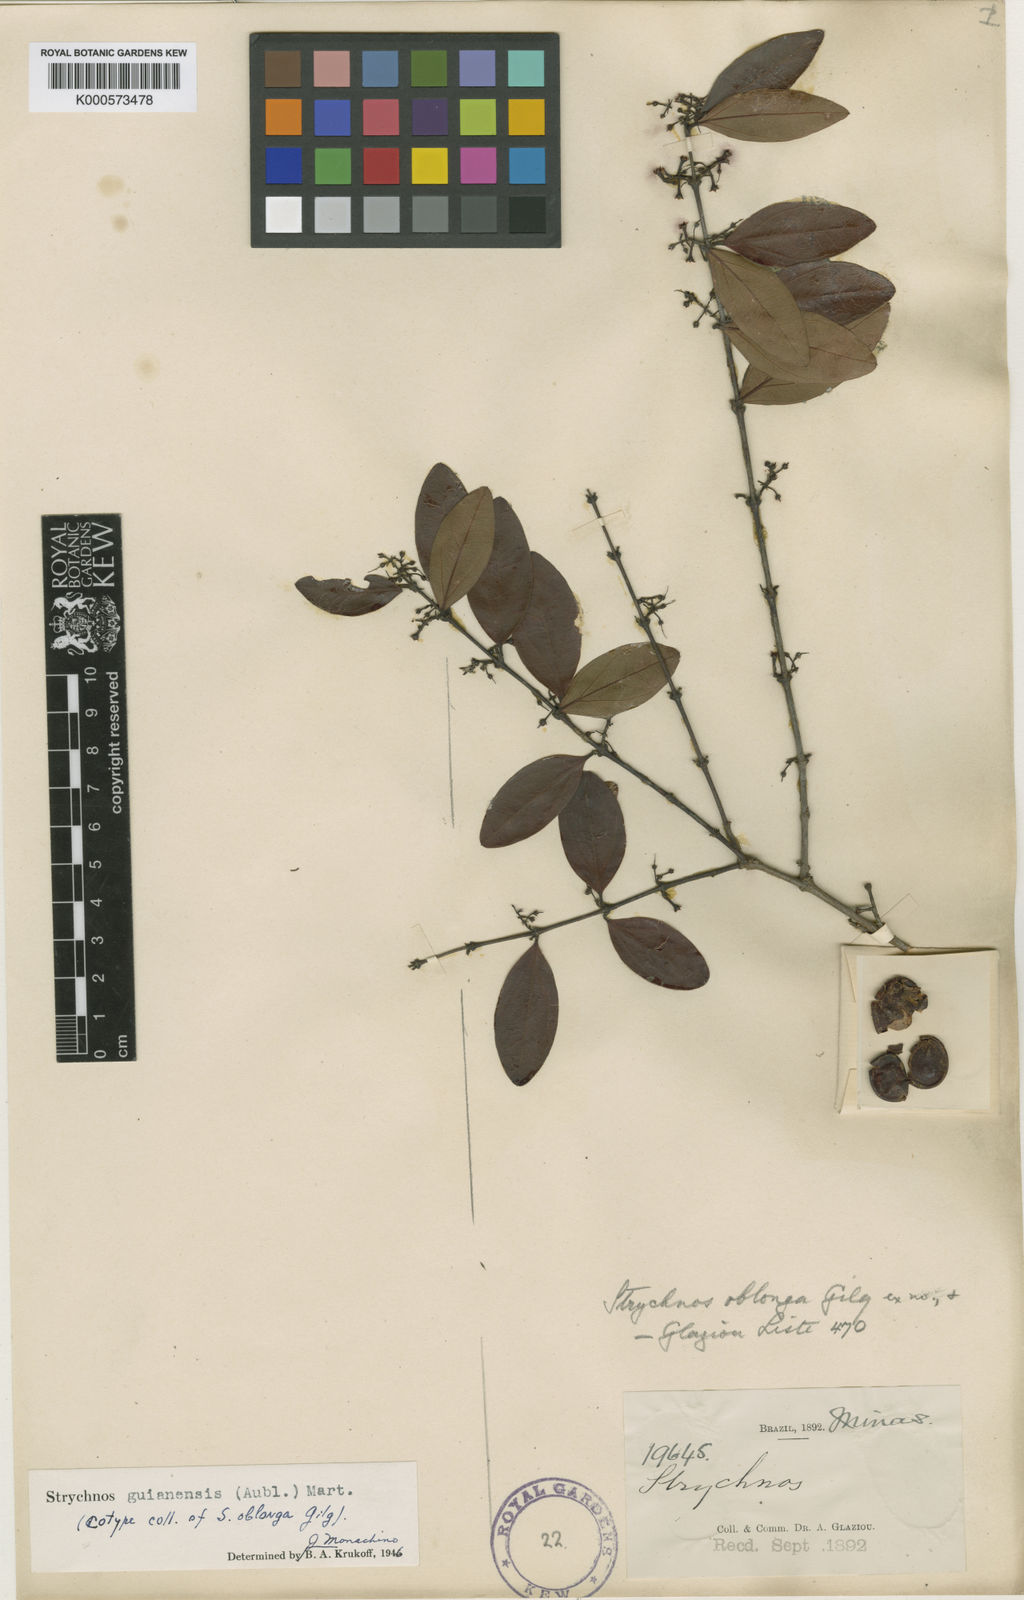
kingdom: Plantae
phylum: Tracheophyta
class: Magnoliopsida
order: Gentianales
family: Loganiaceae
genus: Strychnos
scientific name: Strychnos guianensis
